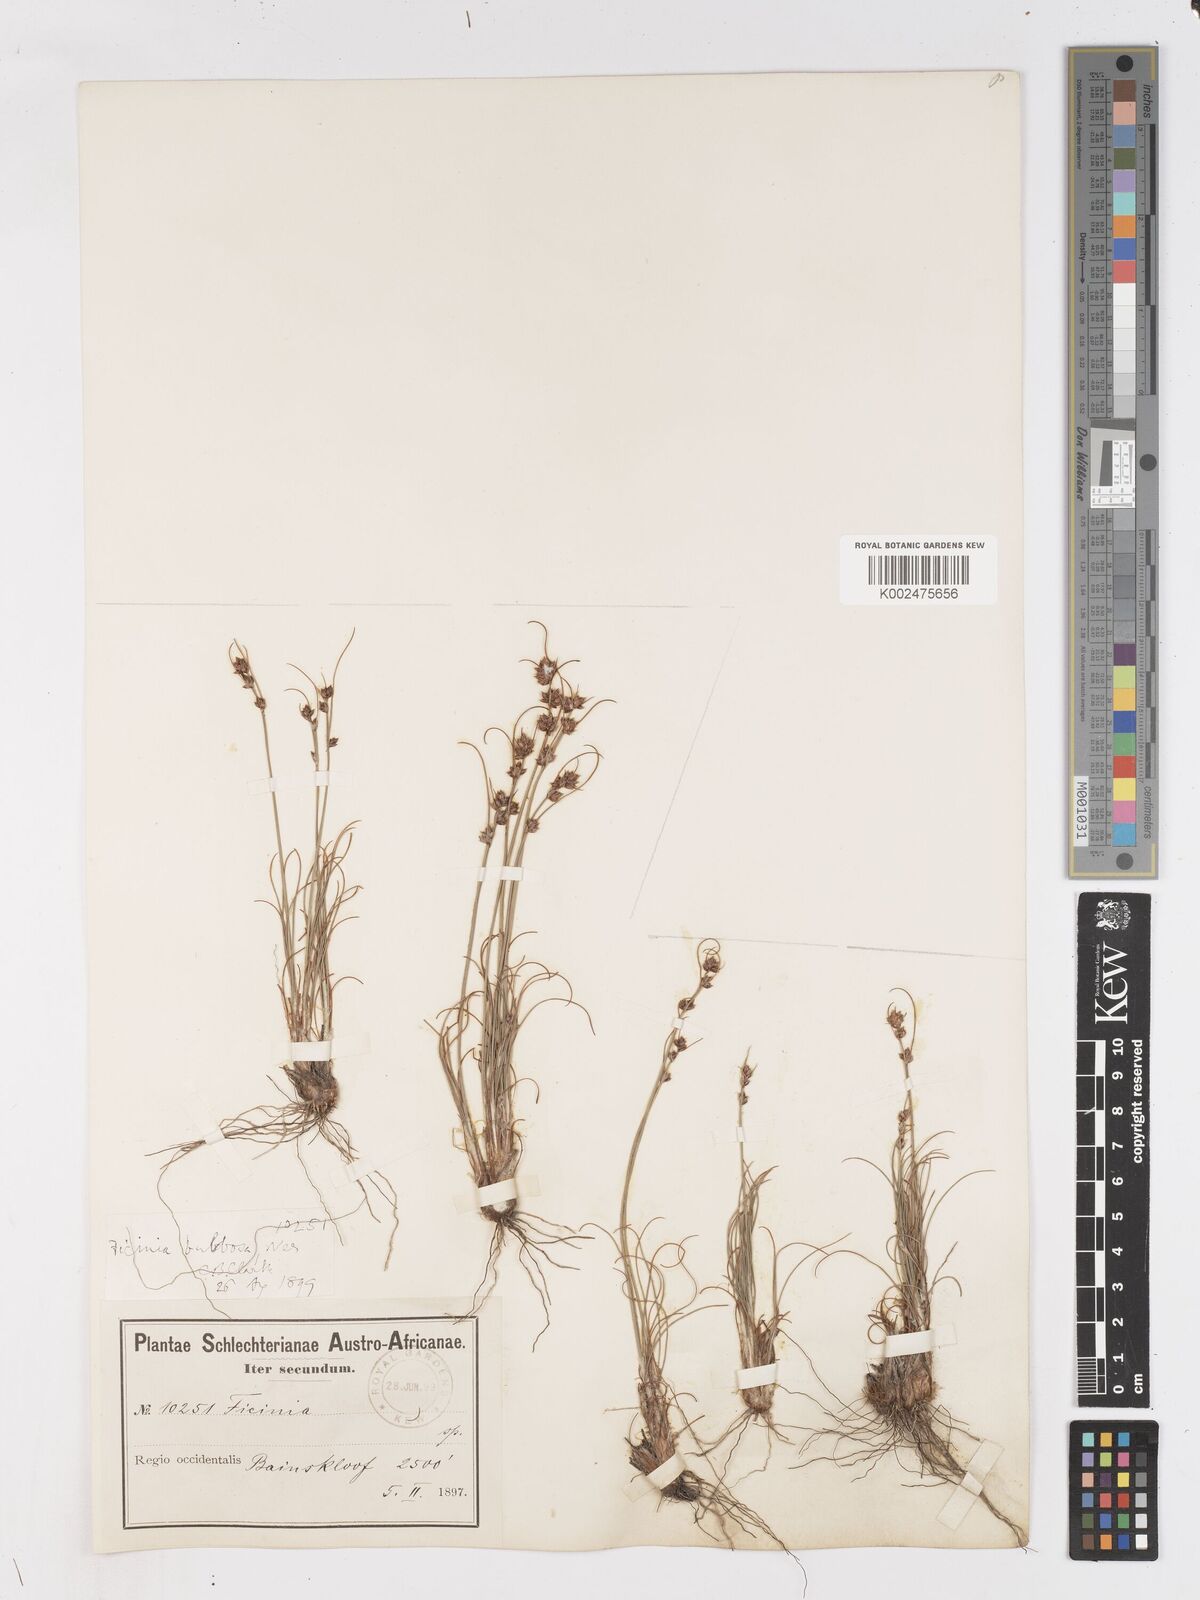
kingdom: Plantae
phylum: Tracheophyta
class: Liliopsida
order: Poales
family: Cyperaceae
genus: Ficinia
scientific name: Ficinia bulbosa
